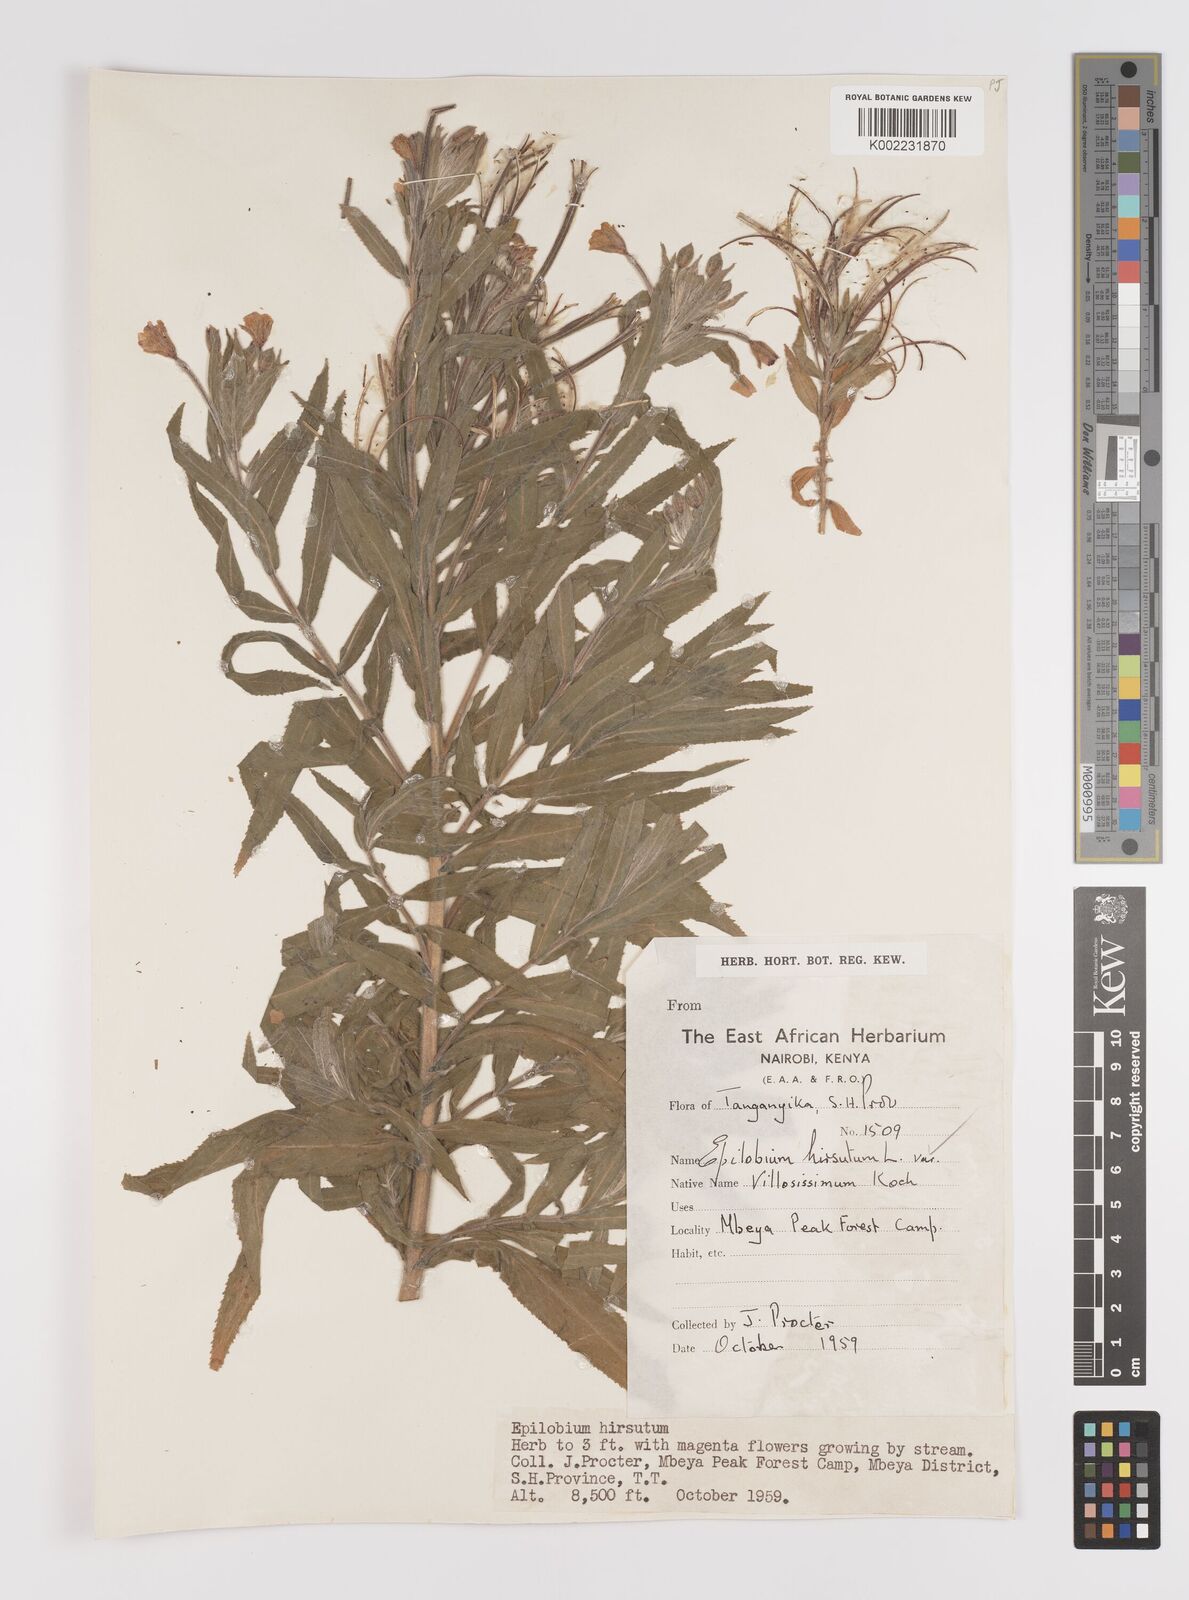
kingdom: Plantae
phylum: Tracheophyta
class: Magnoliopsida
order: Myrtales
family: Onagraceae
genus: Epilobium
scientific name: Epilobium hirsutum
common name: Great willowherb
